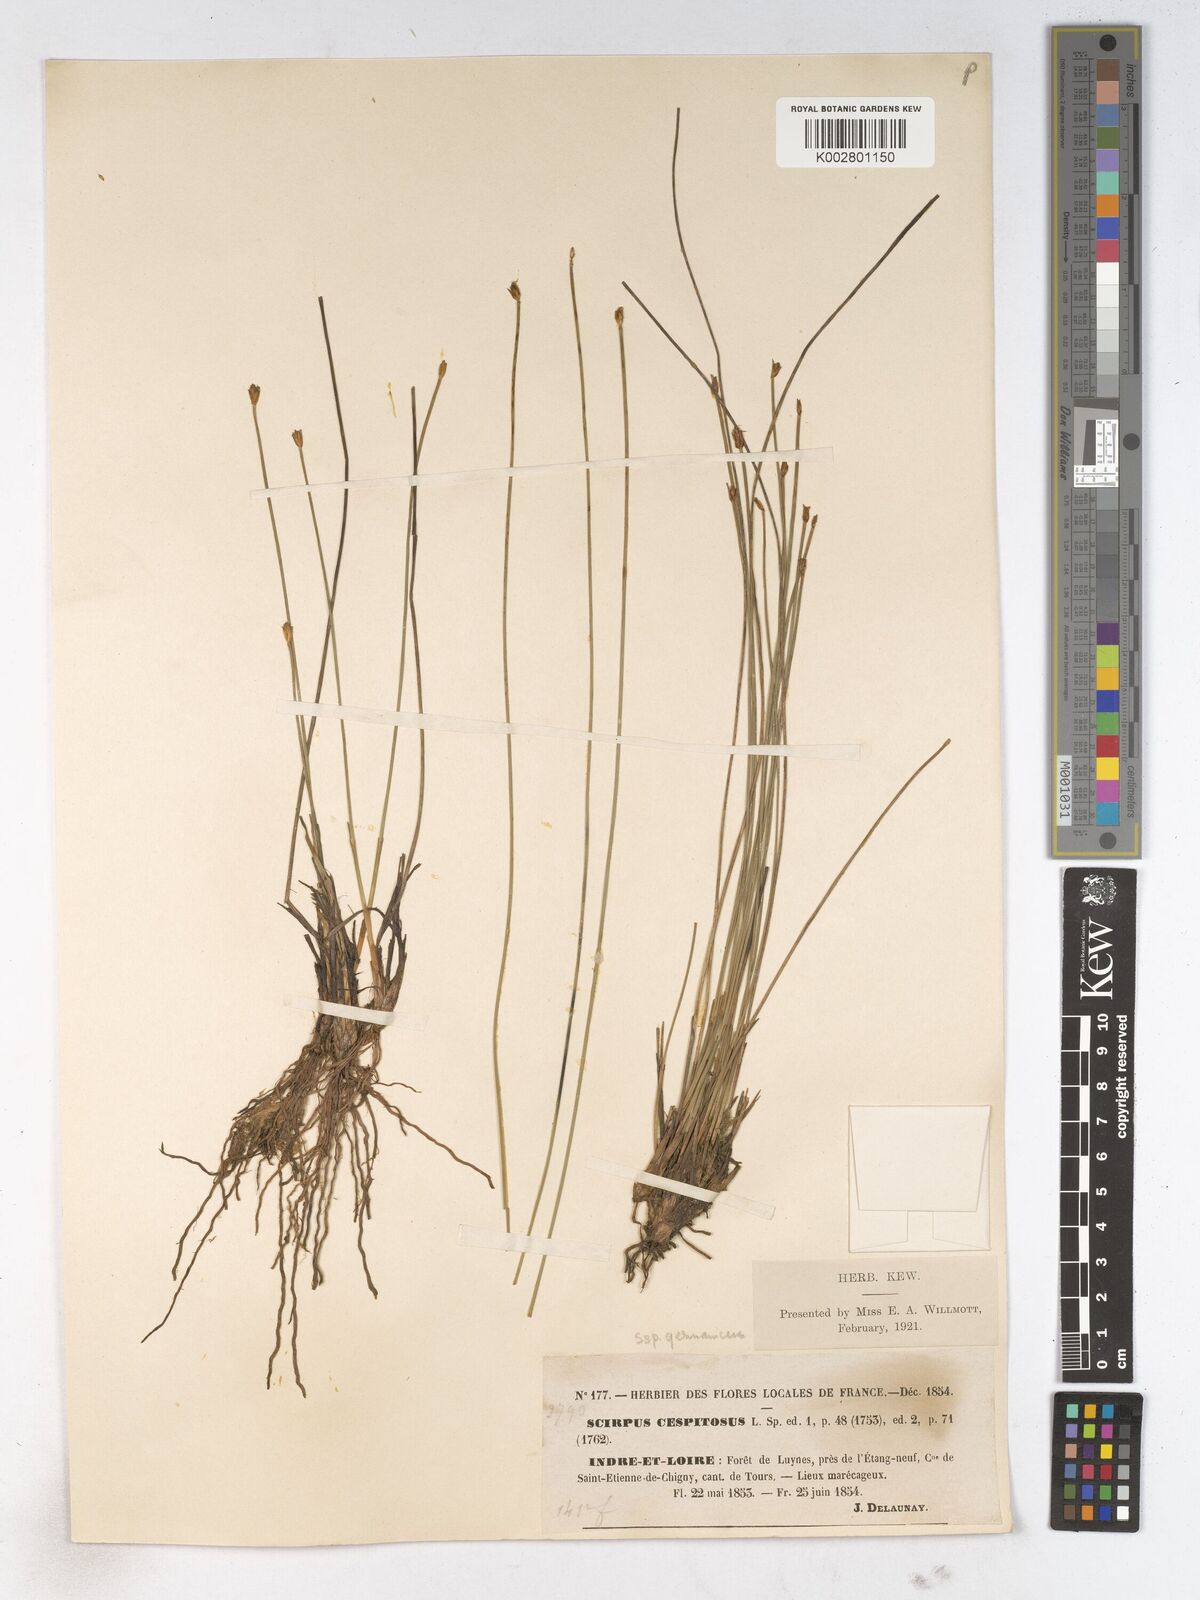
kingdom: Plantae
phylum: Tracheophyta
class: Liliopsida
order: Poales
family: Cyperaceae
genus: Trichophorum
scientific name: Trichophorum cespitosum
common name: Cespitose bulrush
